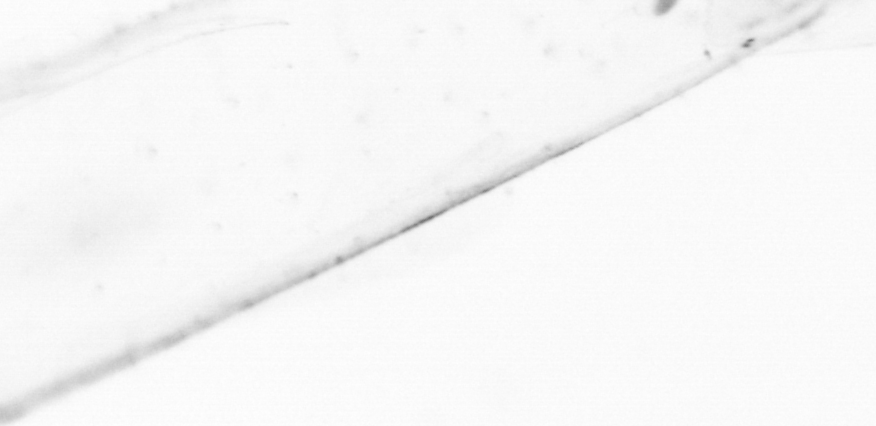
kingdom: Animalia
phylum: Chaetognatha
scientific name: Chaetognatha
